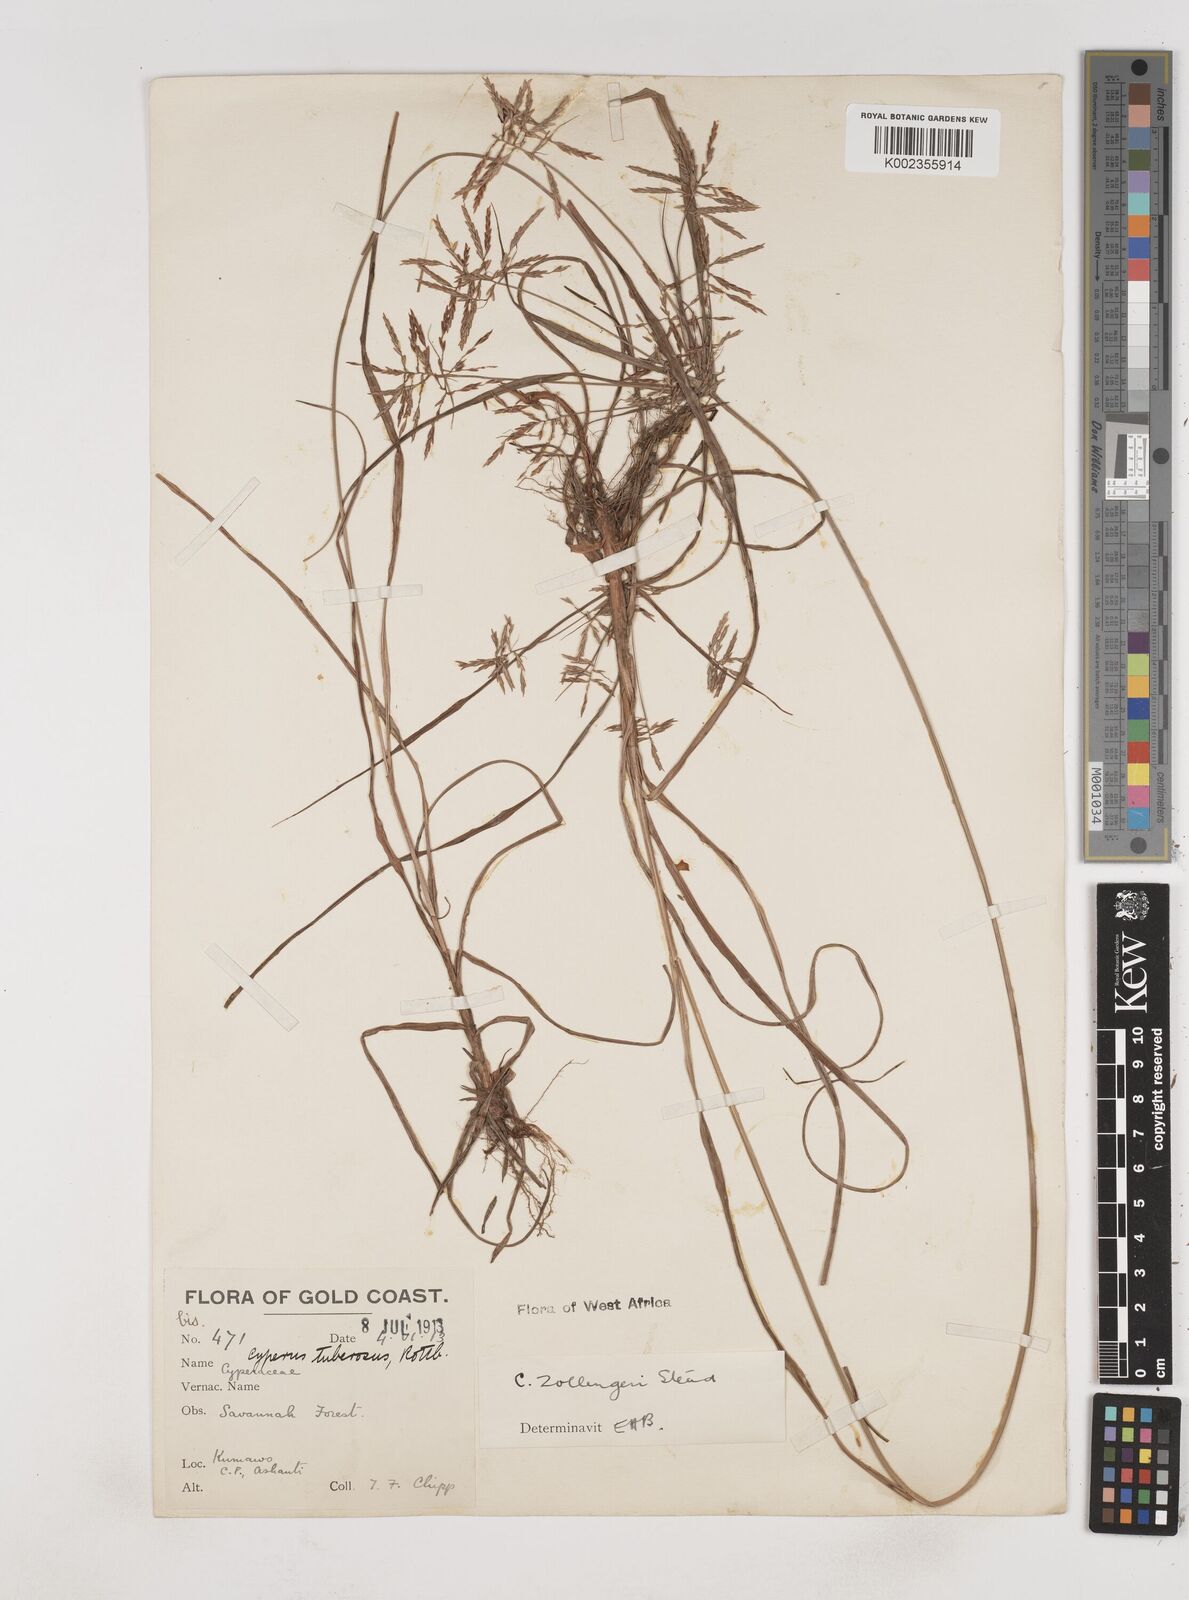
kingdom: Plantae
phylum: Tracheophyta
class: Liliopsida
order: Poales
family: Cyperaceae
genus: Cyperus
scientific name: Cyperus dilatatus
